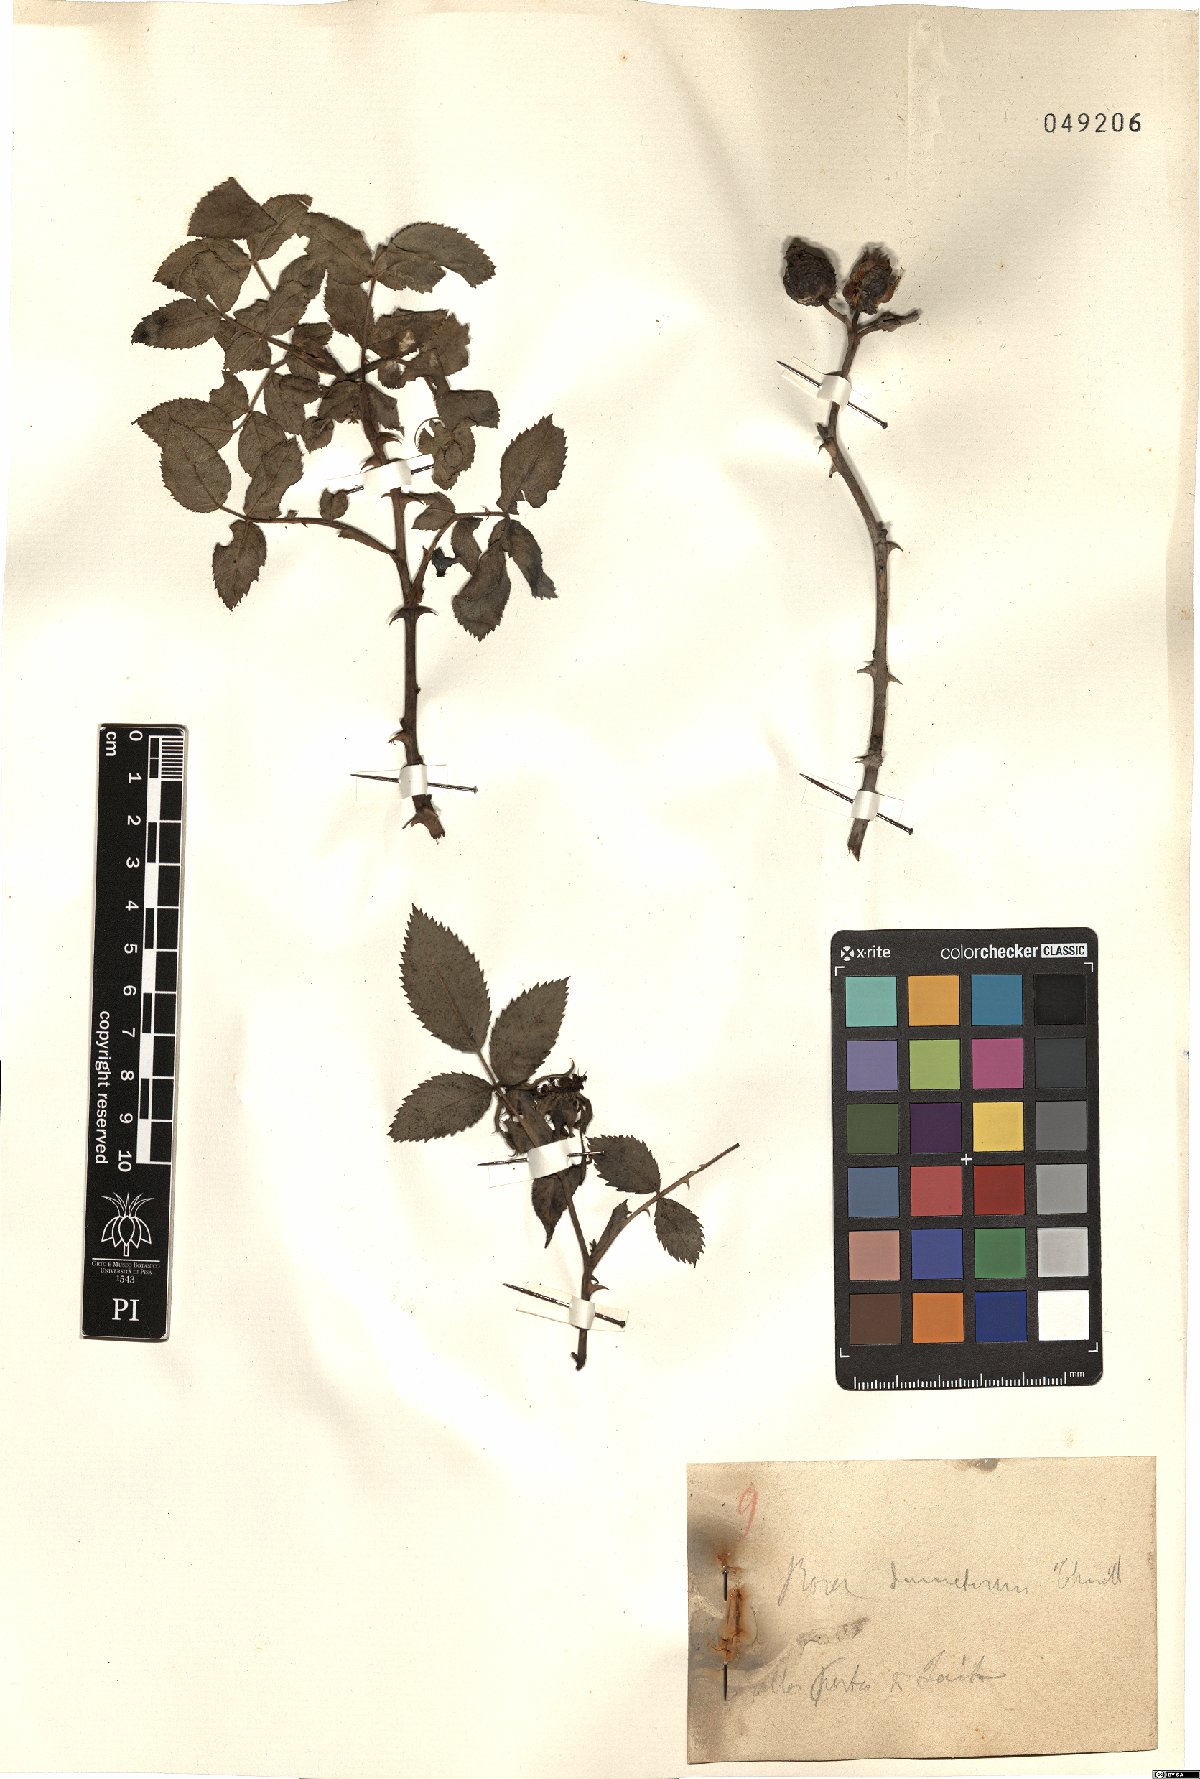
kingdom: Plantae
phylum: Tracheophyta
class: Magnoliopsida
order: Rosales
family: Rosaceae
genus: Rosa
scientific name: Rosa corymbifera
